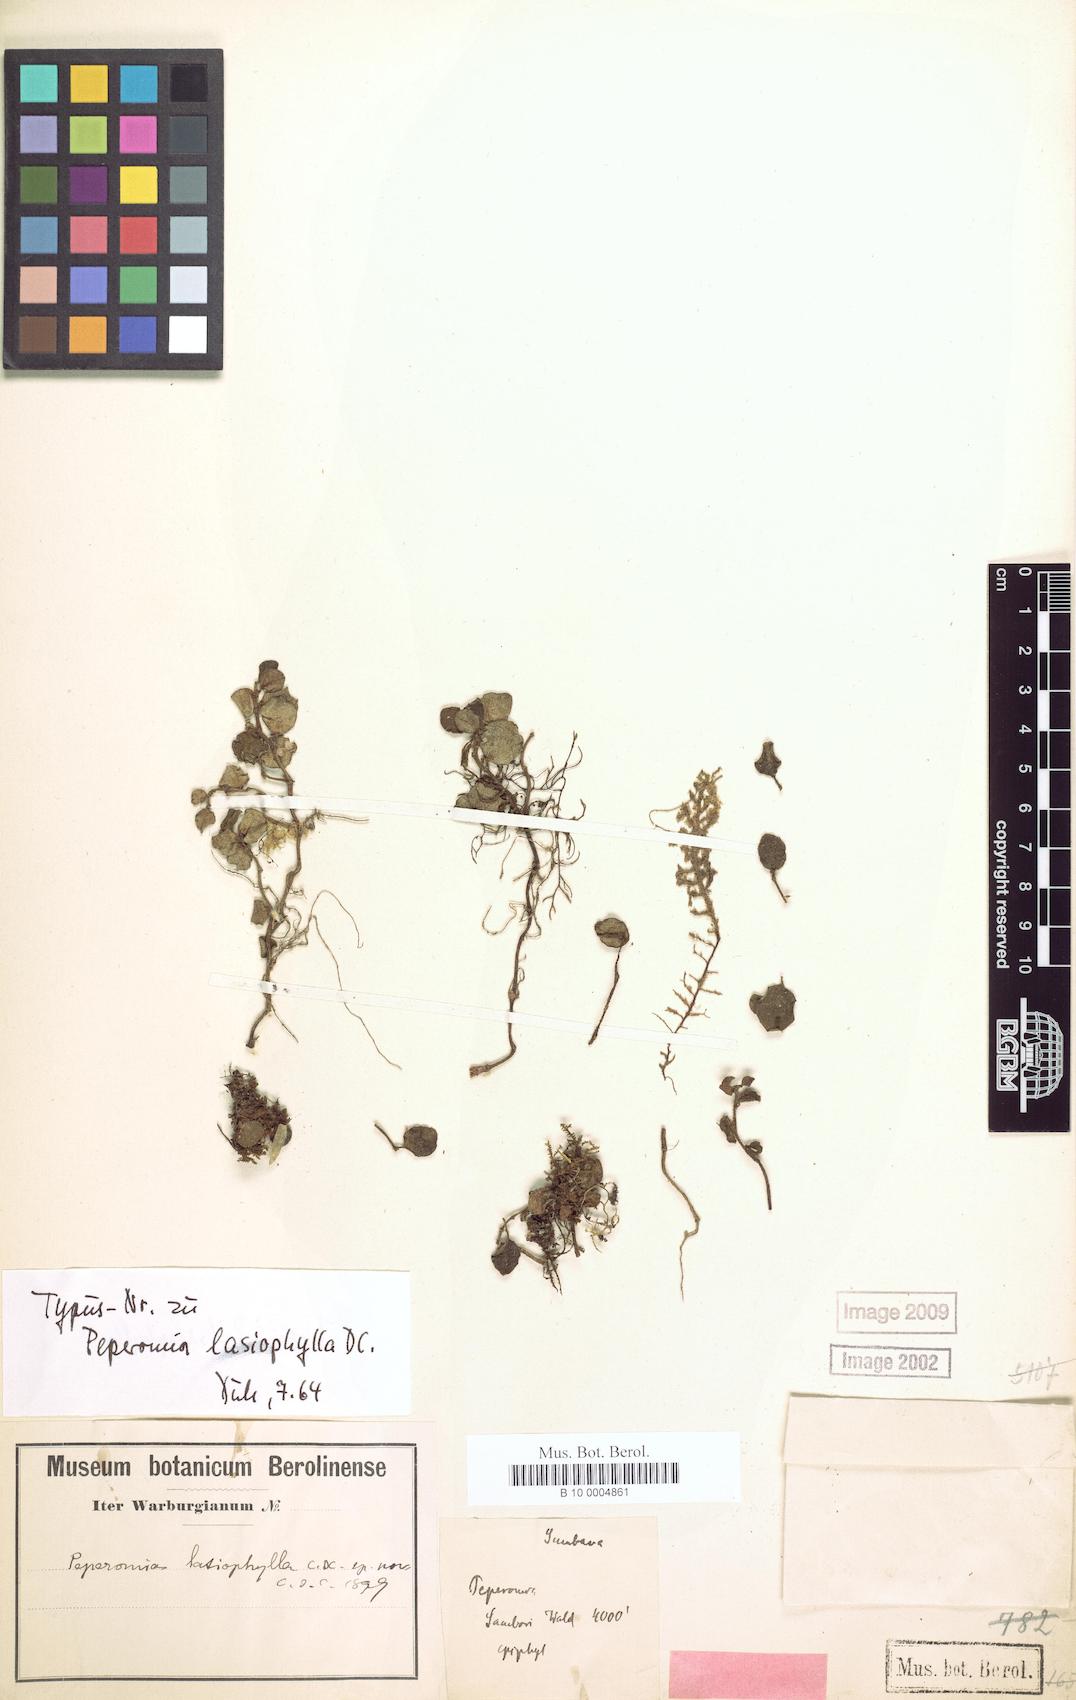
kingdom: Plantae
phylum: Tracheophyta
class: Magnoliopsida
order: Piperales
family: Piperaceae
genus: Peperomia
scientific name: Peperomia lasiophylla
